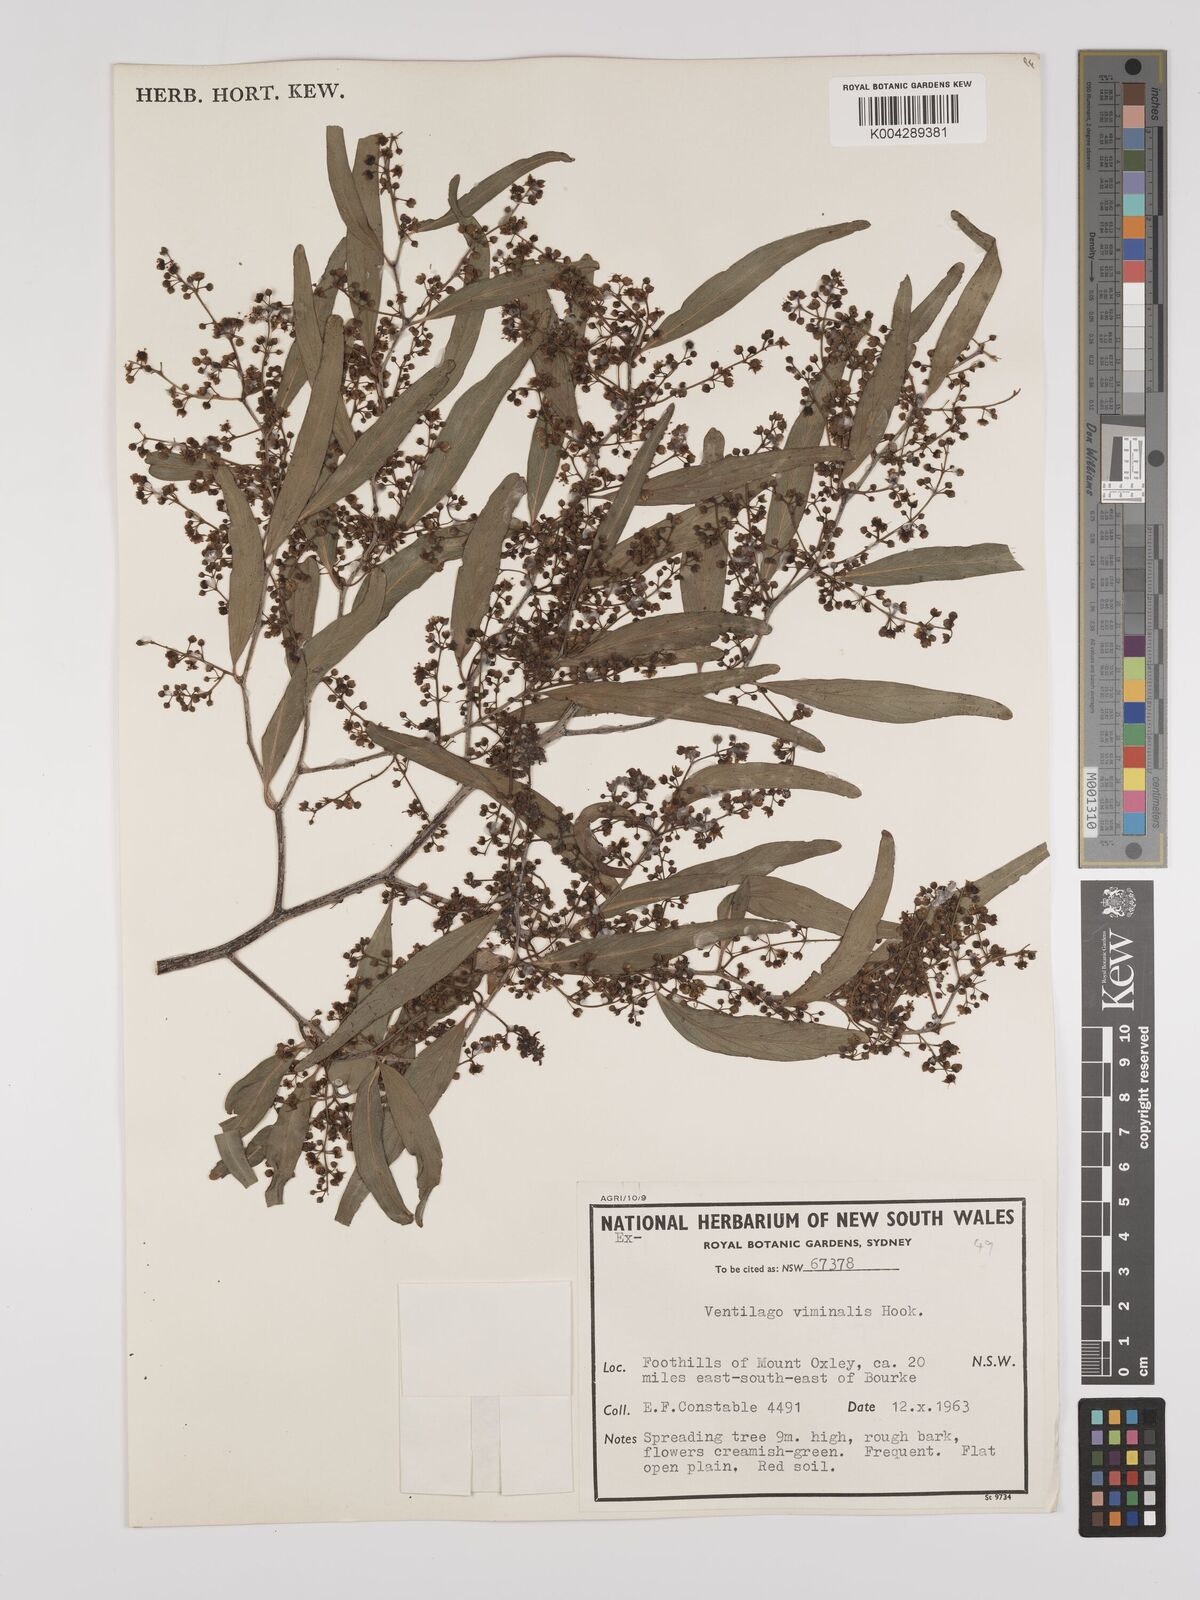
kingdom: Plantae
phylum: Tracheophyta
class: Magnoliopsida
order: Rosales
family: Rhamnaceae
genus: Ventilago
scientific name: Ventilago viminalis
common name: Medicine-bark
